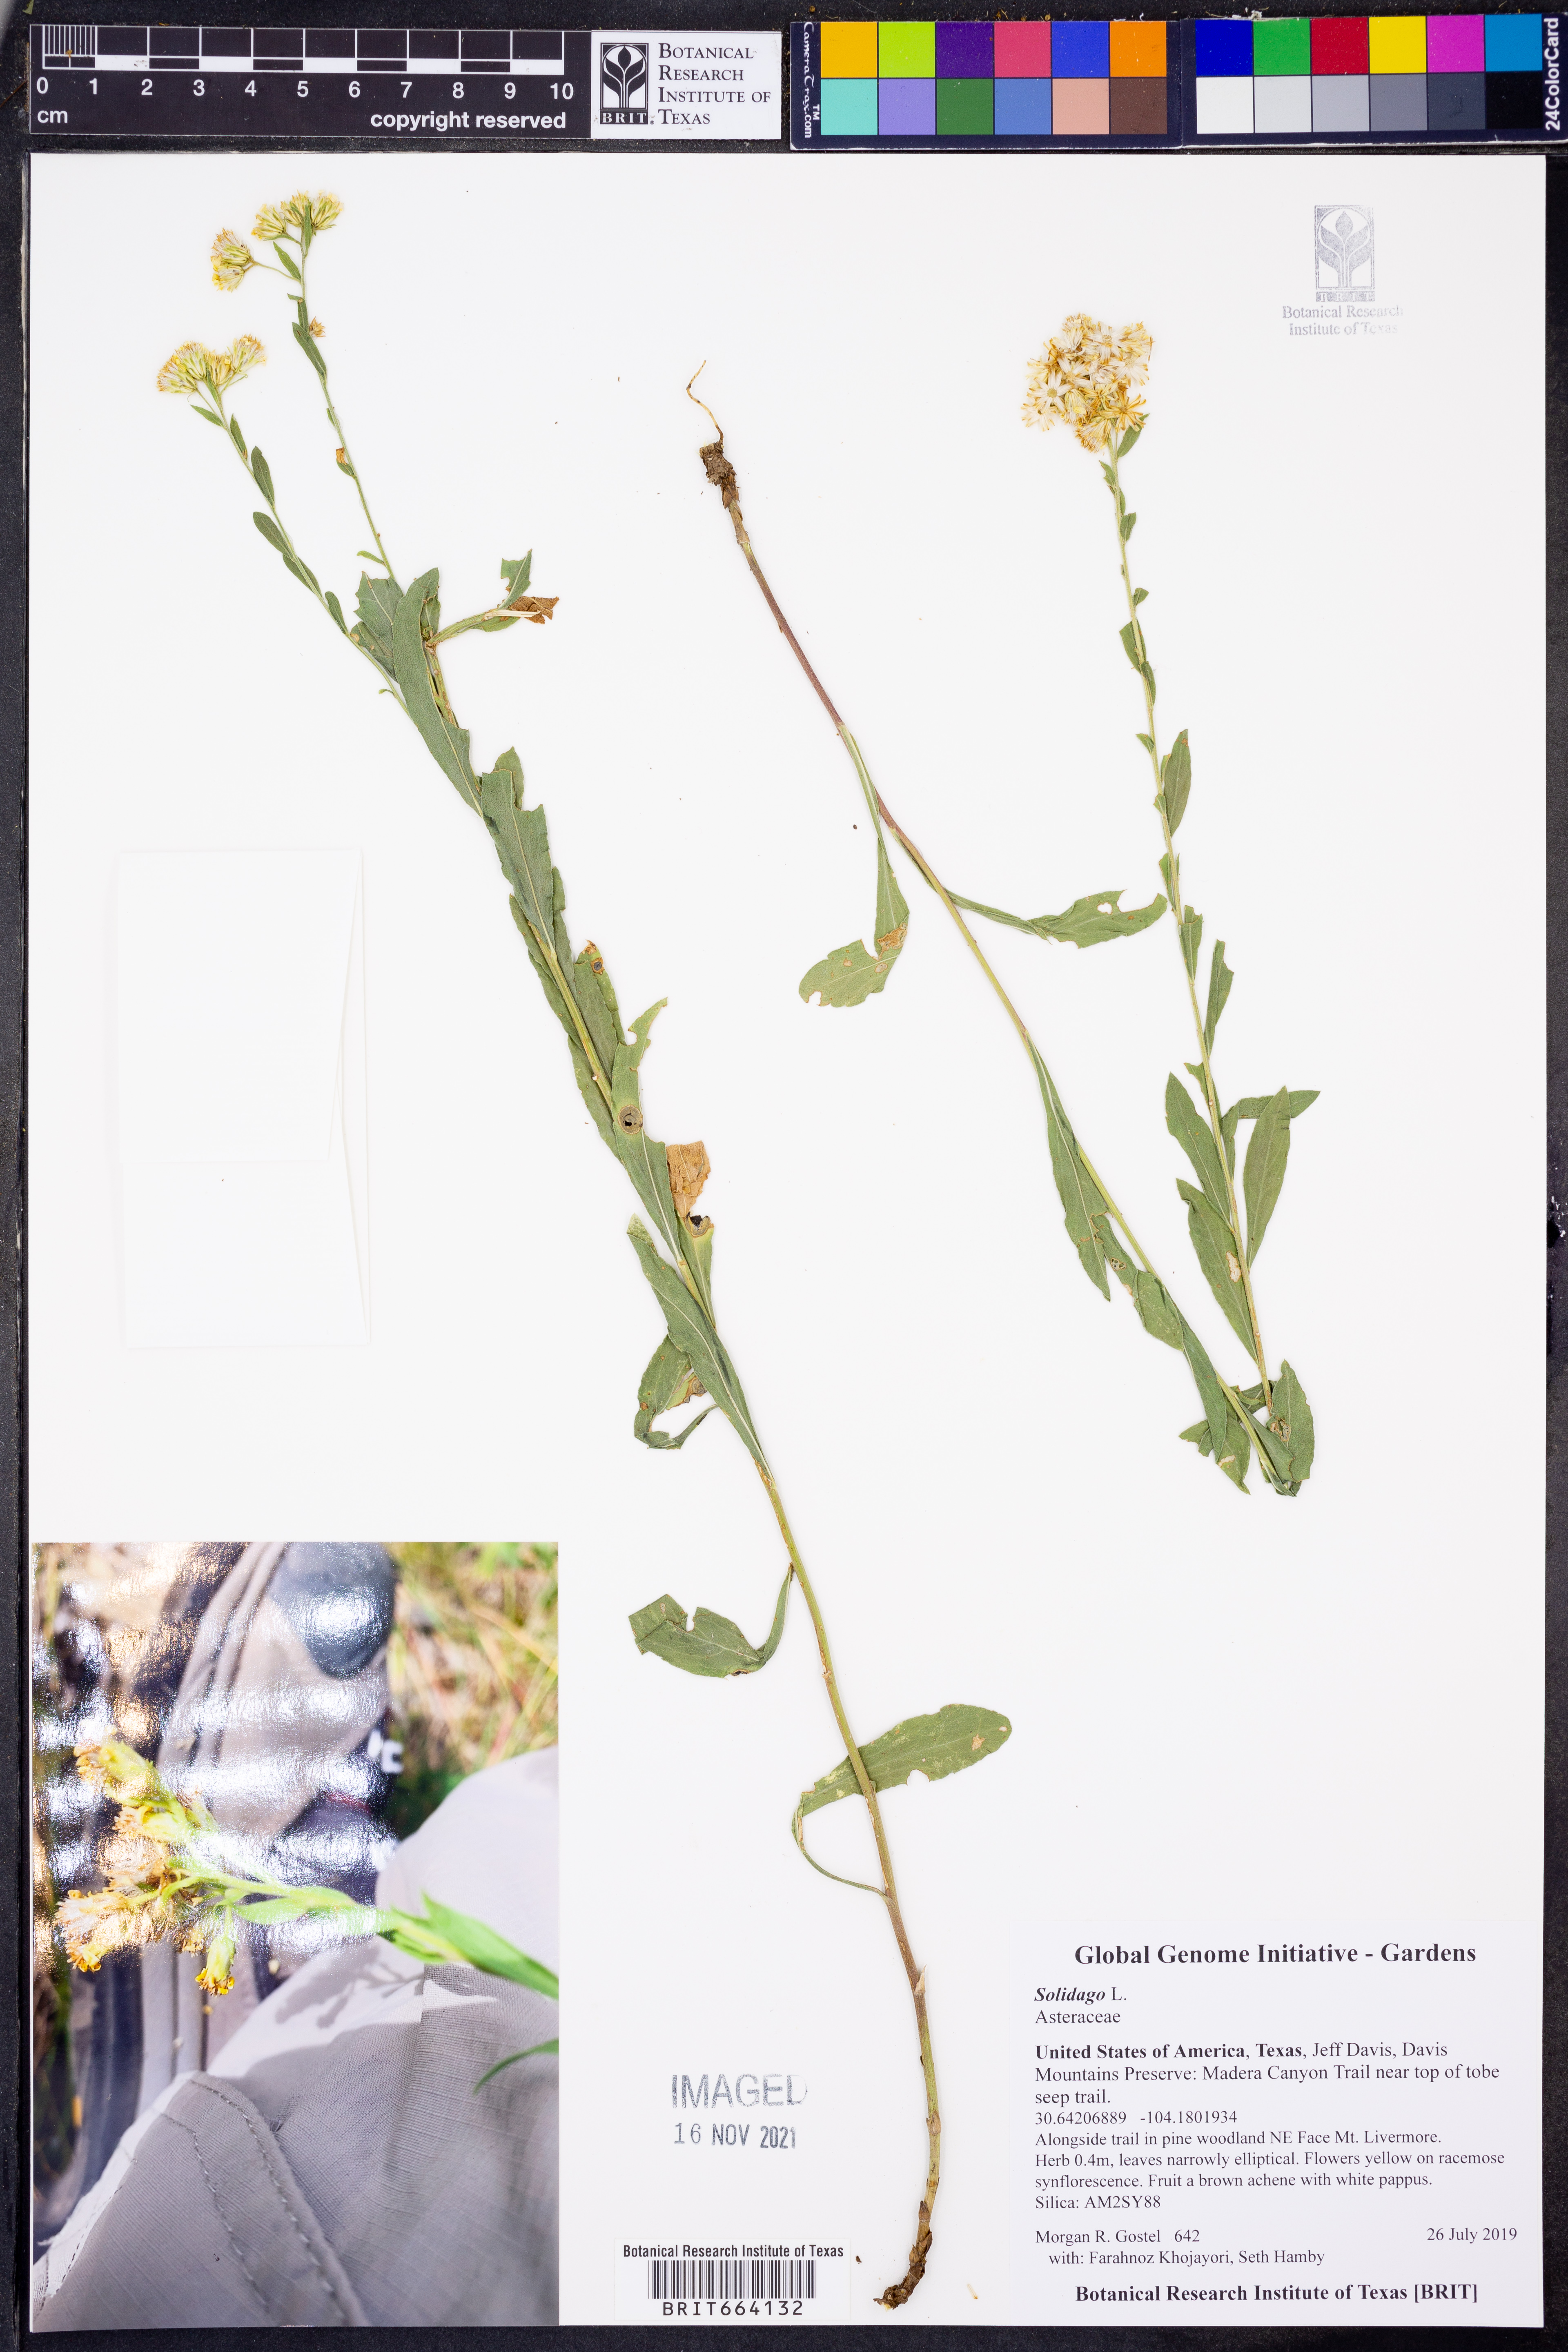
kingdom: Plantae
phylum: Tracheophyta
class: Magnoliopsida
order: Asterales
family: Asteraceae
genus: Solidago
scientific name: Solidago
